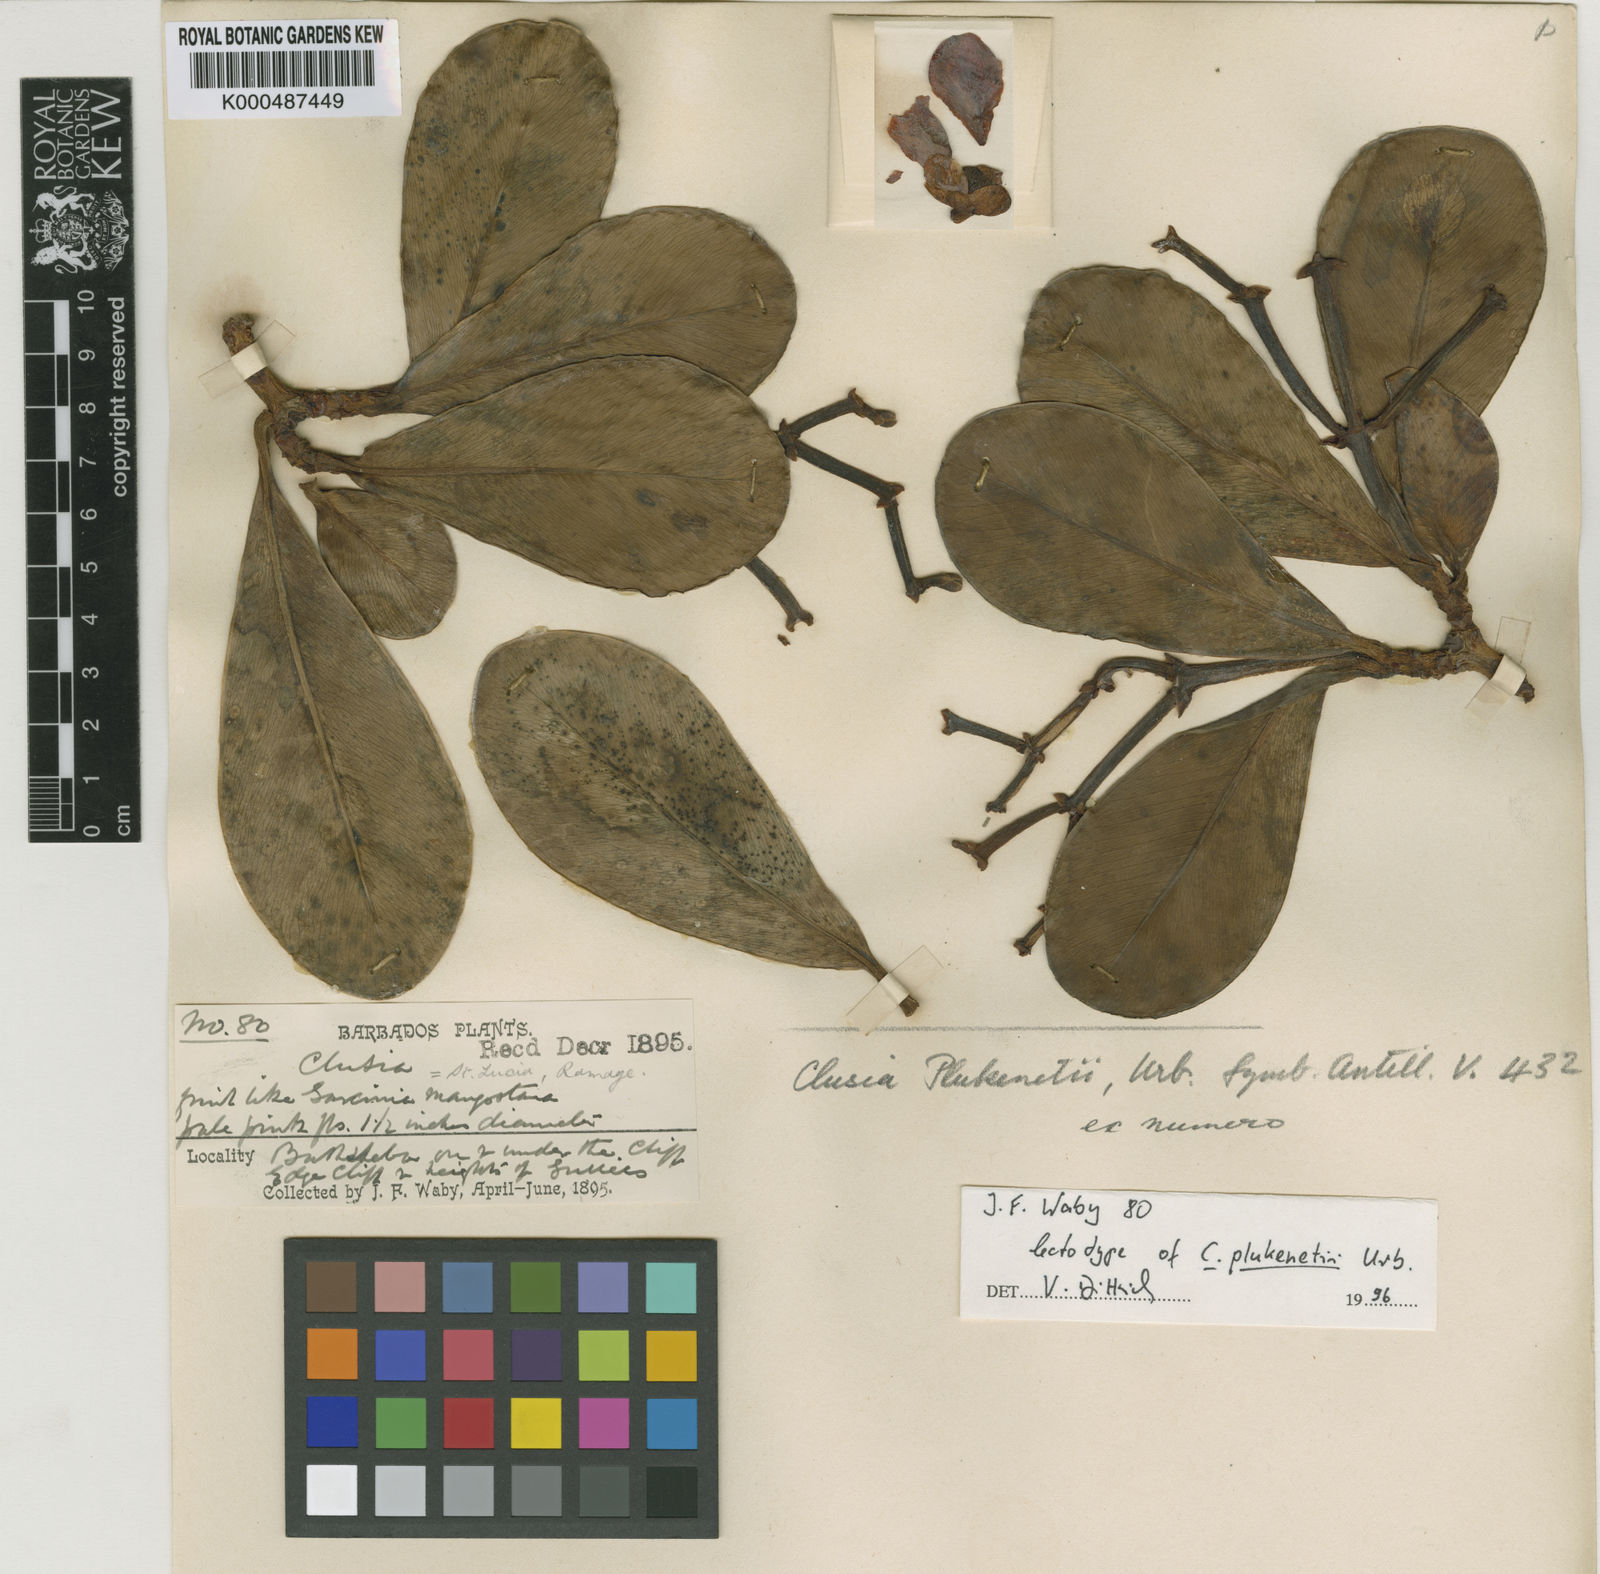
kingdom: Plantae
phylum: Tracheophyta
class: Magnoliopsida
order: Malpighiales
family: Clusiaceae
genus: Clusia
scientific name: Clusia plukenetii
